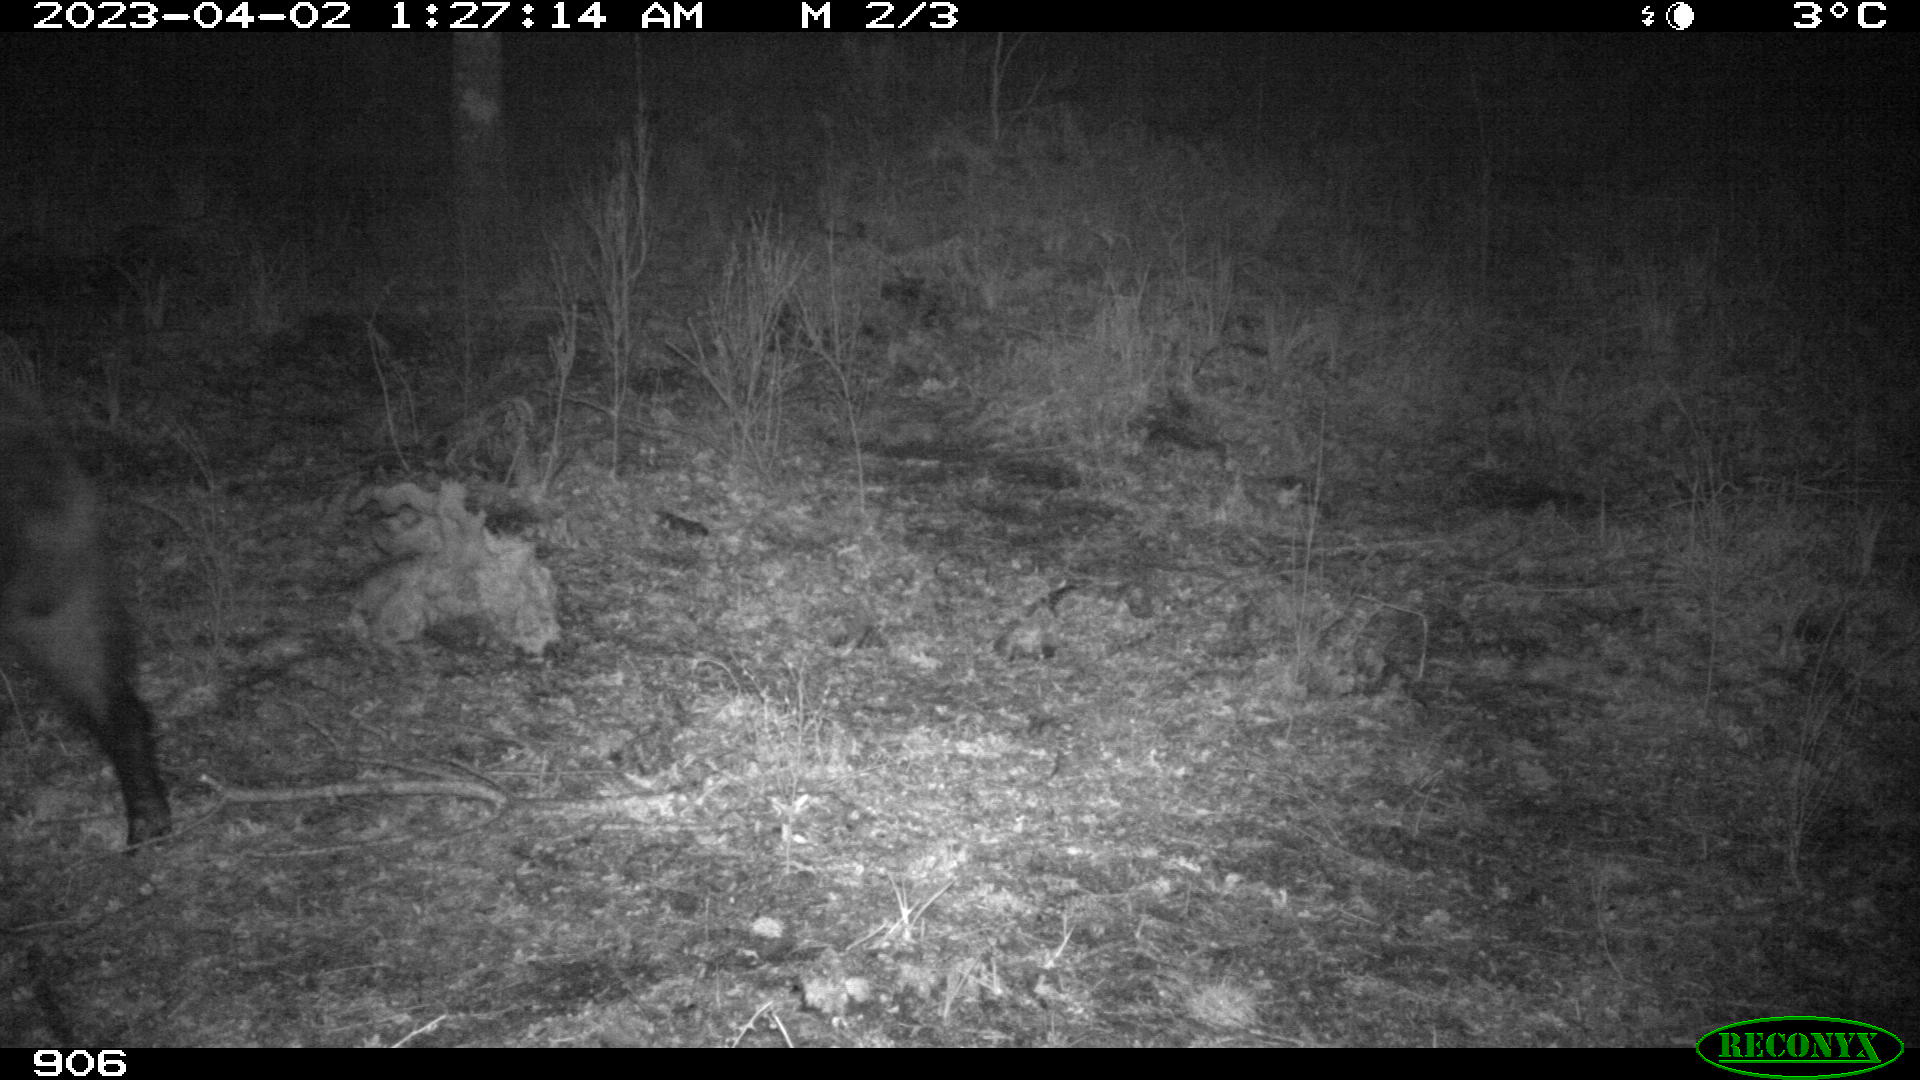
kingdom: Animalia
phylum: Chordata
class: Mammalia
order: Artiodactyla
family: Suidae
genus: Sus
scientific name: Sus scrofa
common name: Wild boar
